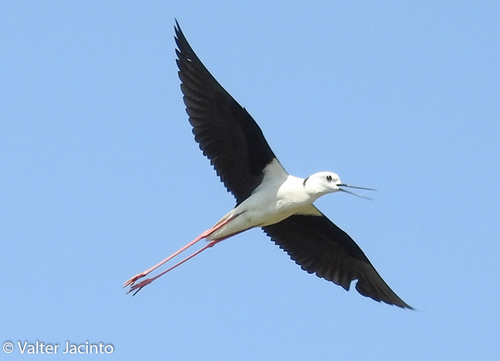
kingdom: Animalia
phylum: Chordata
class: Aves
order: Charadriiformes
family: Recurvirostridae
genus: Himantopus
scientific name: Himantopus himantopus
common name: Black-winged stilt
